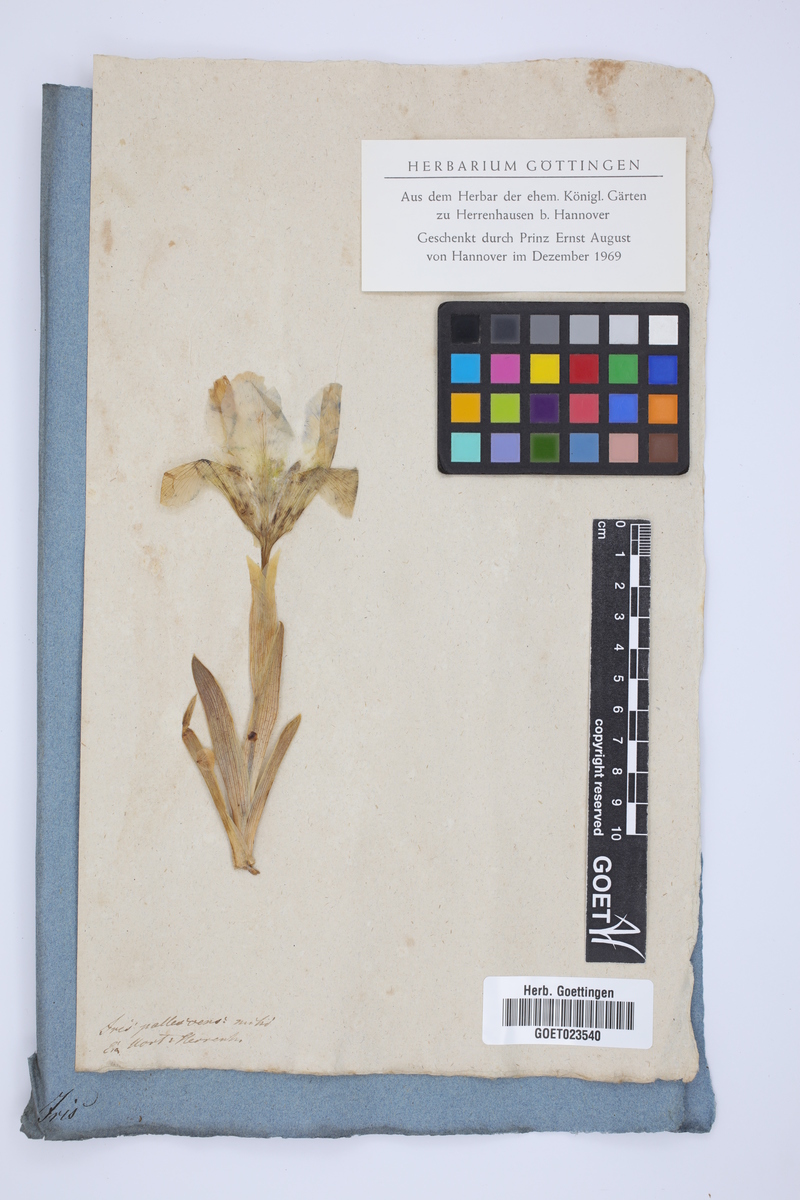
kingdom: Plantae
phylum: Tracheophyta
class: Liliopsida
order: Asparagales
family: Iridaceae
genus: Iris
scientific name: Iris
